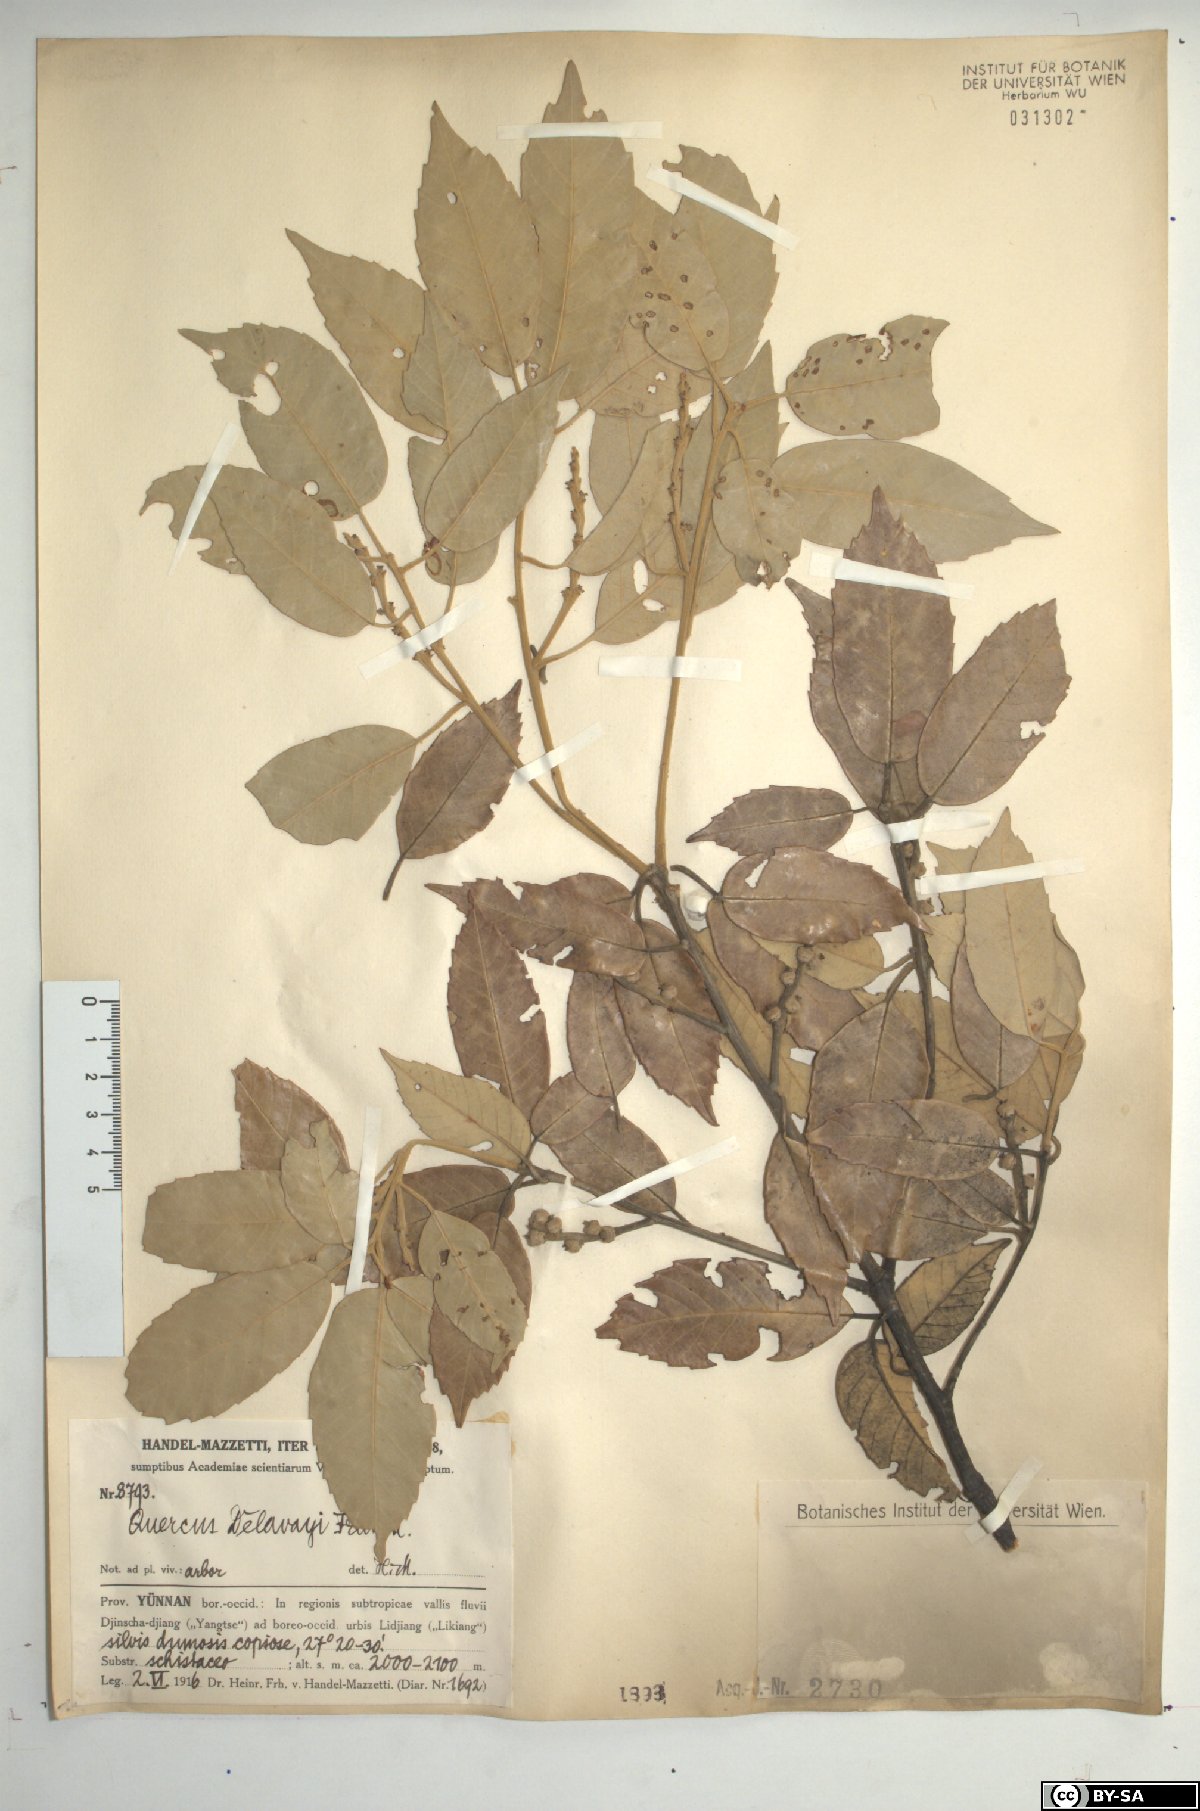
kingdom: Plantae
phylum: Tracheophyta
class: Magnoliopsida
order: Fagales
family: Fagaceae
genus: Quercus
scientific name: Quercus delavayi
